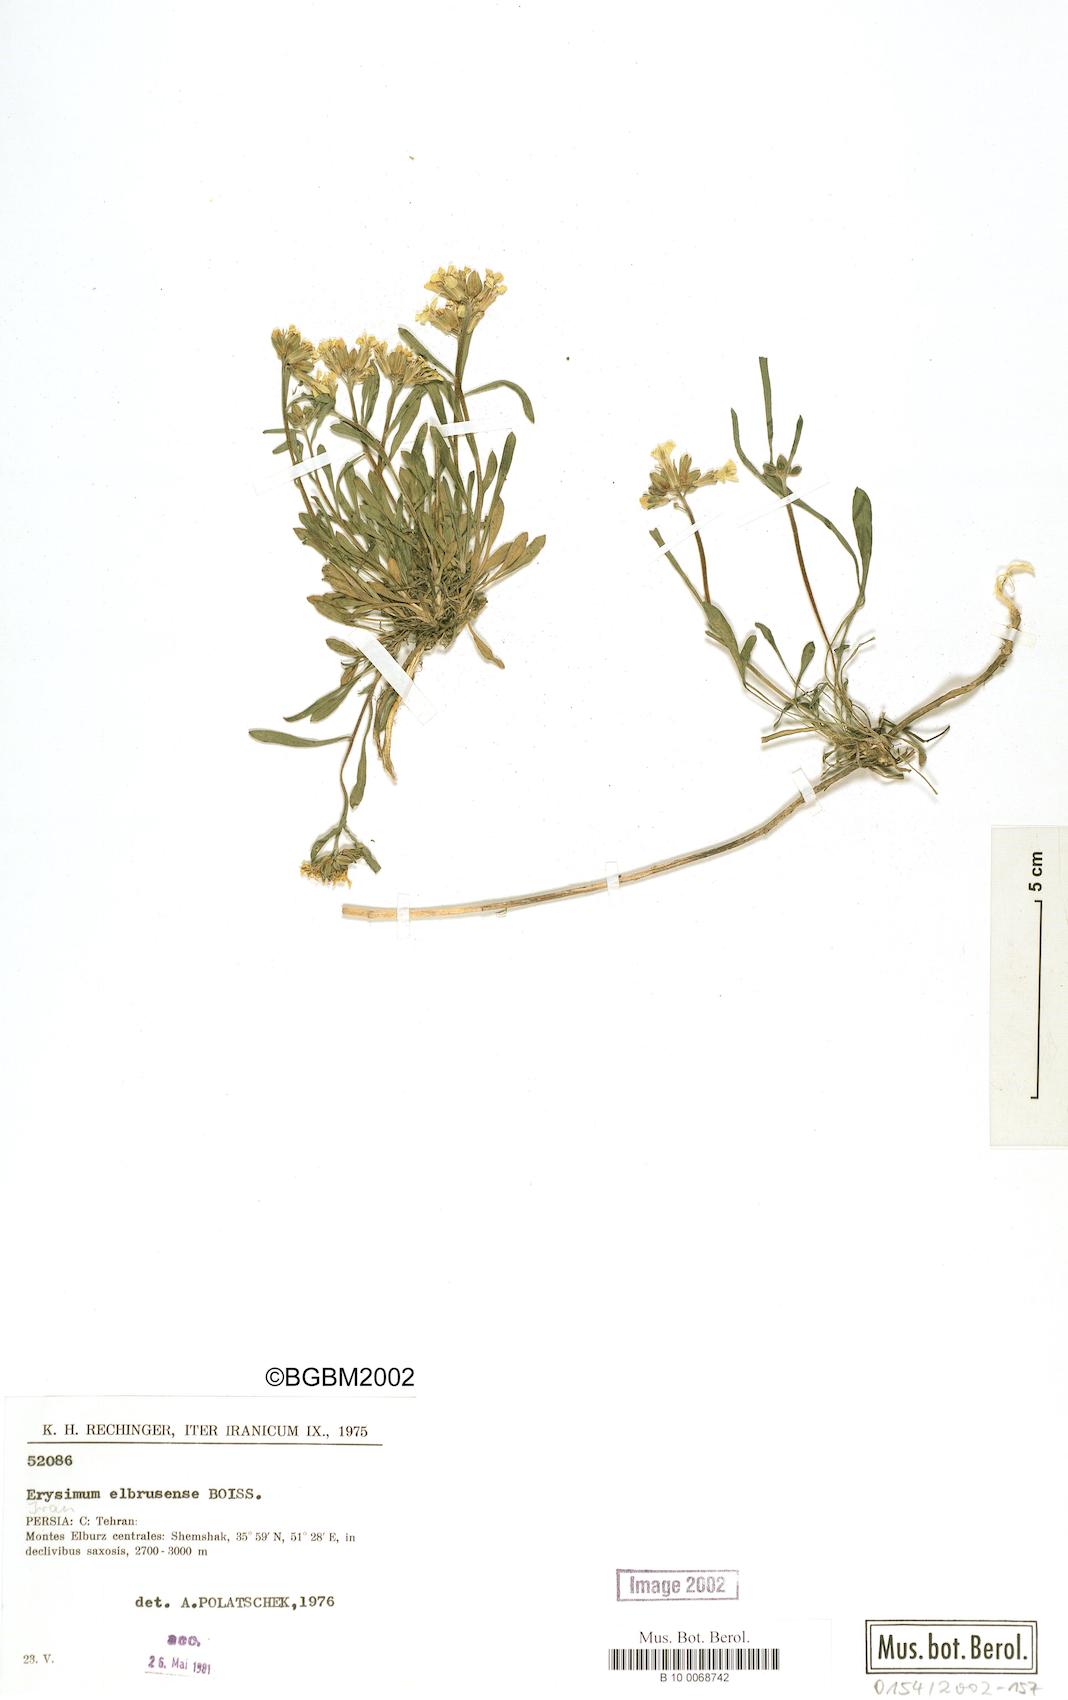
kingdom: Plantae
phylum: Tracheophyta
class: Magnoliopsida
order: Brassicales
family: Brassicaceae
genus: Erysimum
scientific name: Erysimum elbrusense
